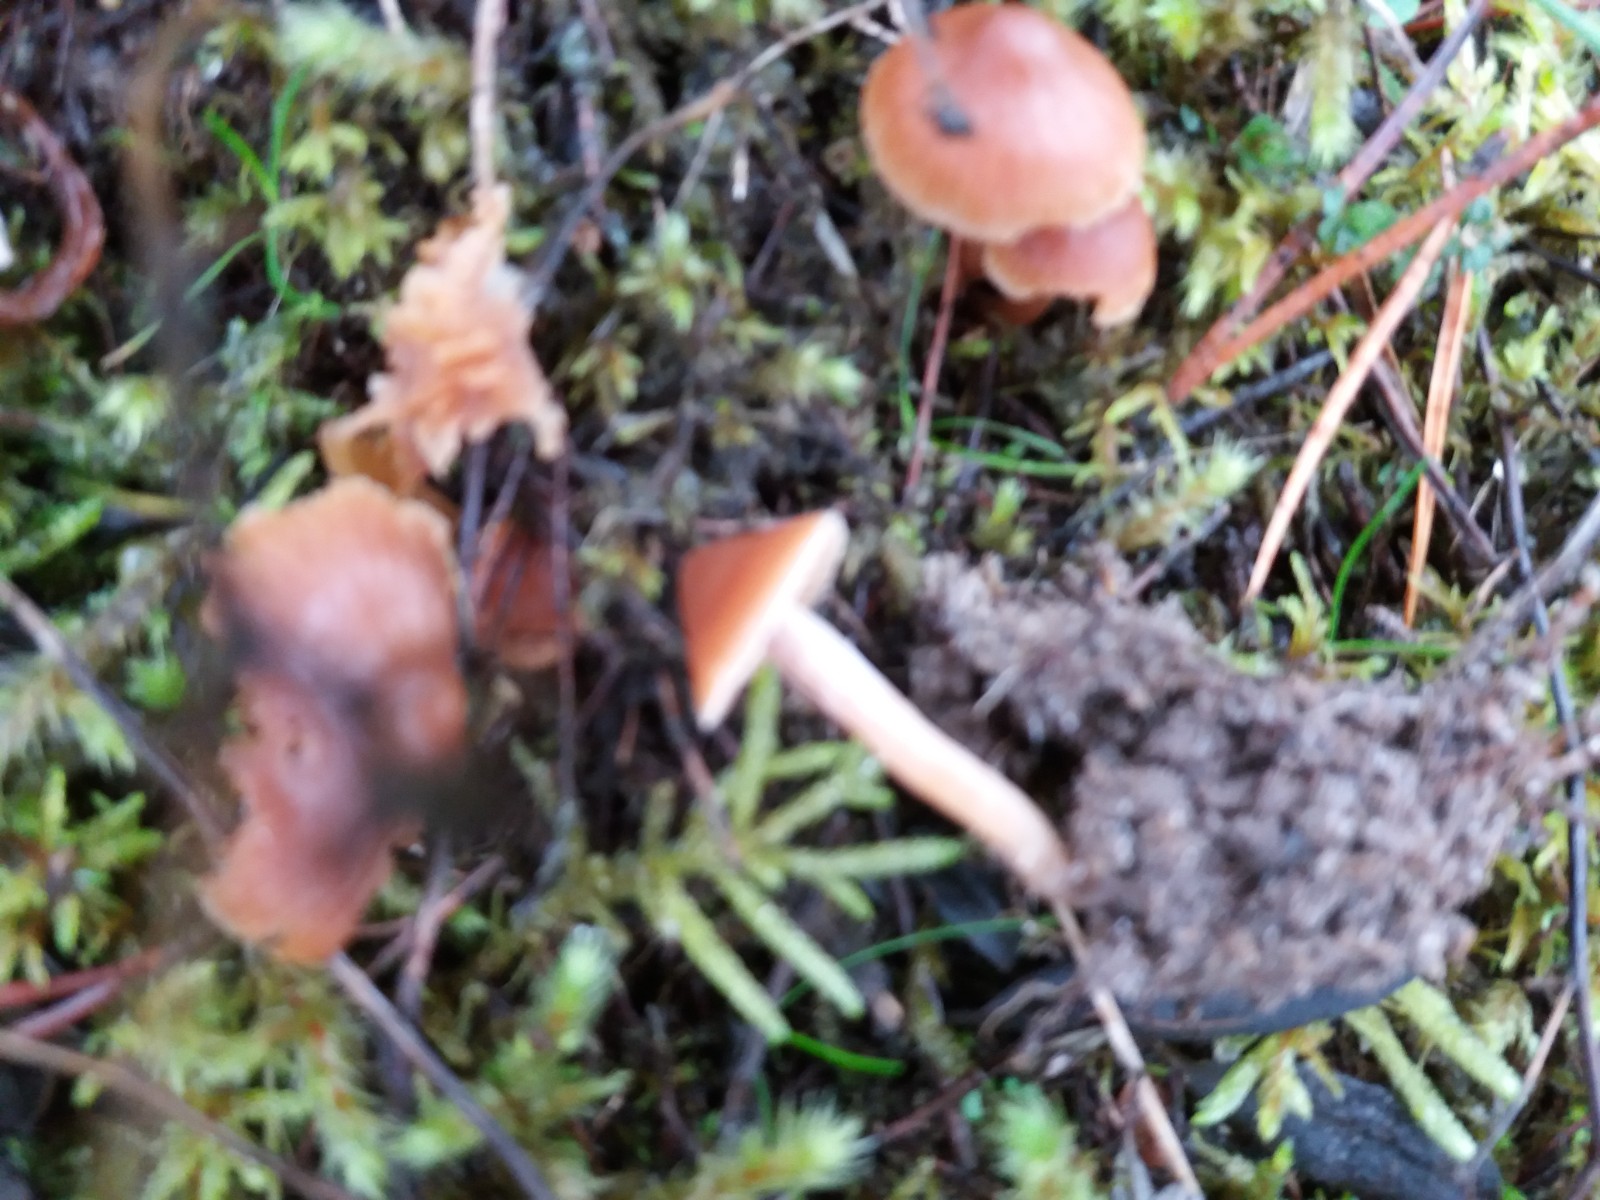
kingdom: Fungi
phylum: Basidiomycota
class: Agaricomycetes
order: Agaricales
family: Cortinariaceae
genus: Cortinarius
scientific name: Cortinarius
